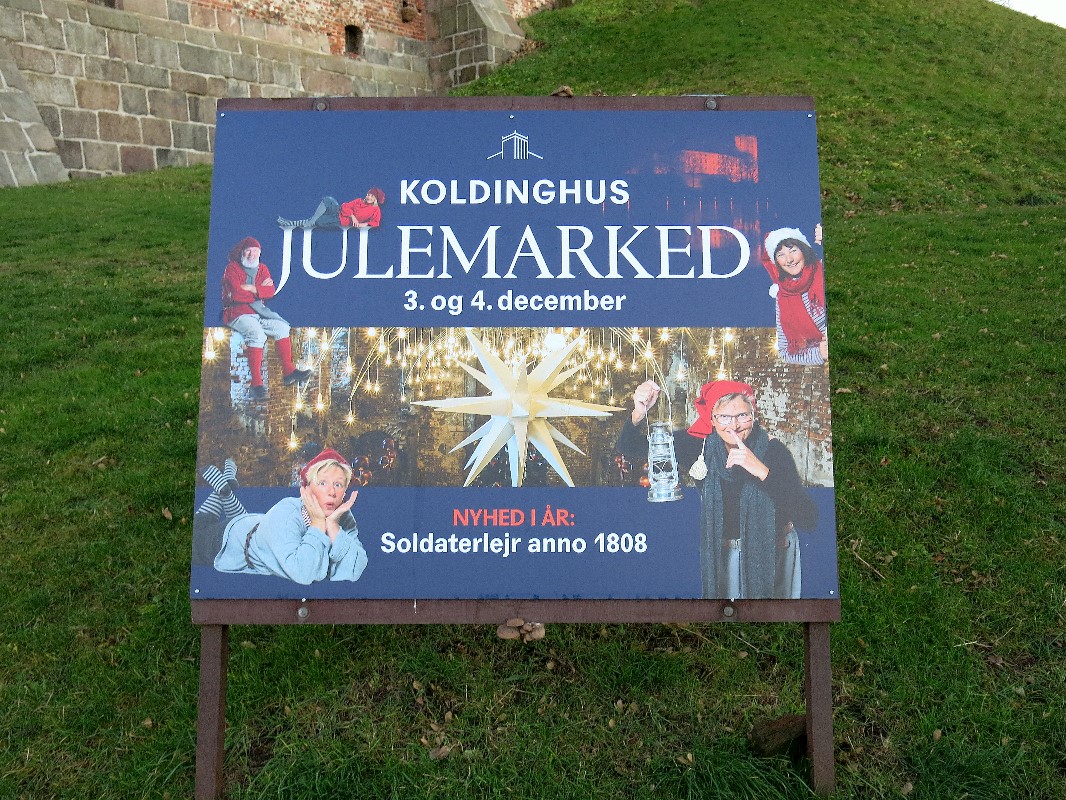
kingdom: Fungi
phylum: Basidiomycota
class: Agaricomycetes
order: Agaricales
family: Pleurotaceae
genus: Pleurotus
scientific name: Pleurotus ostreatus
